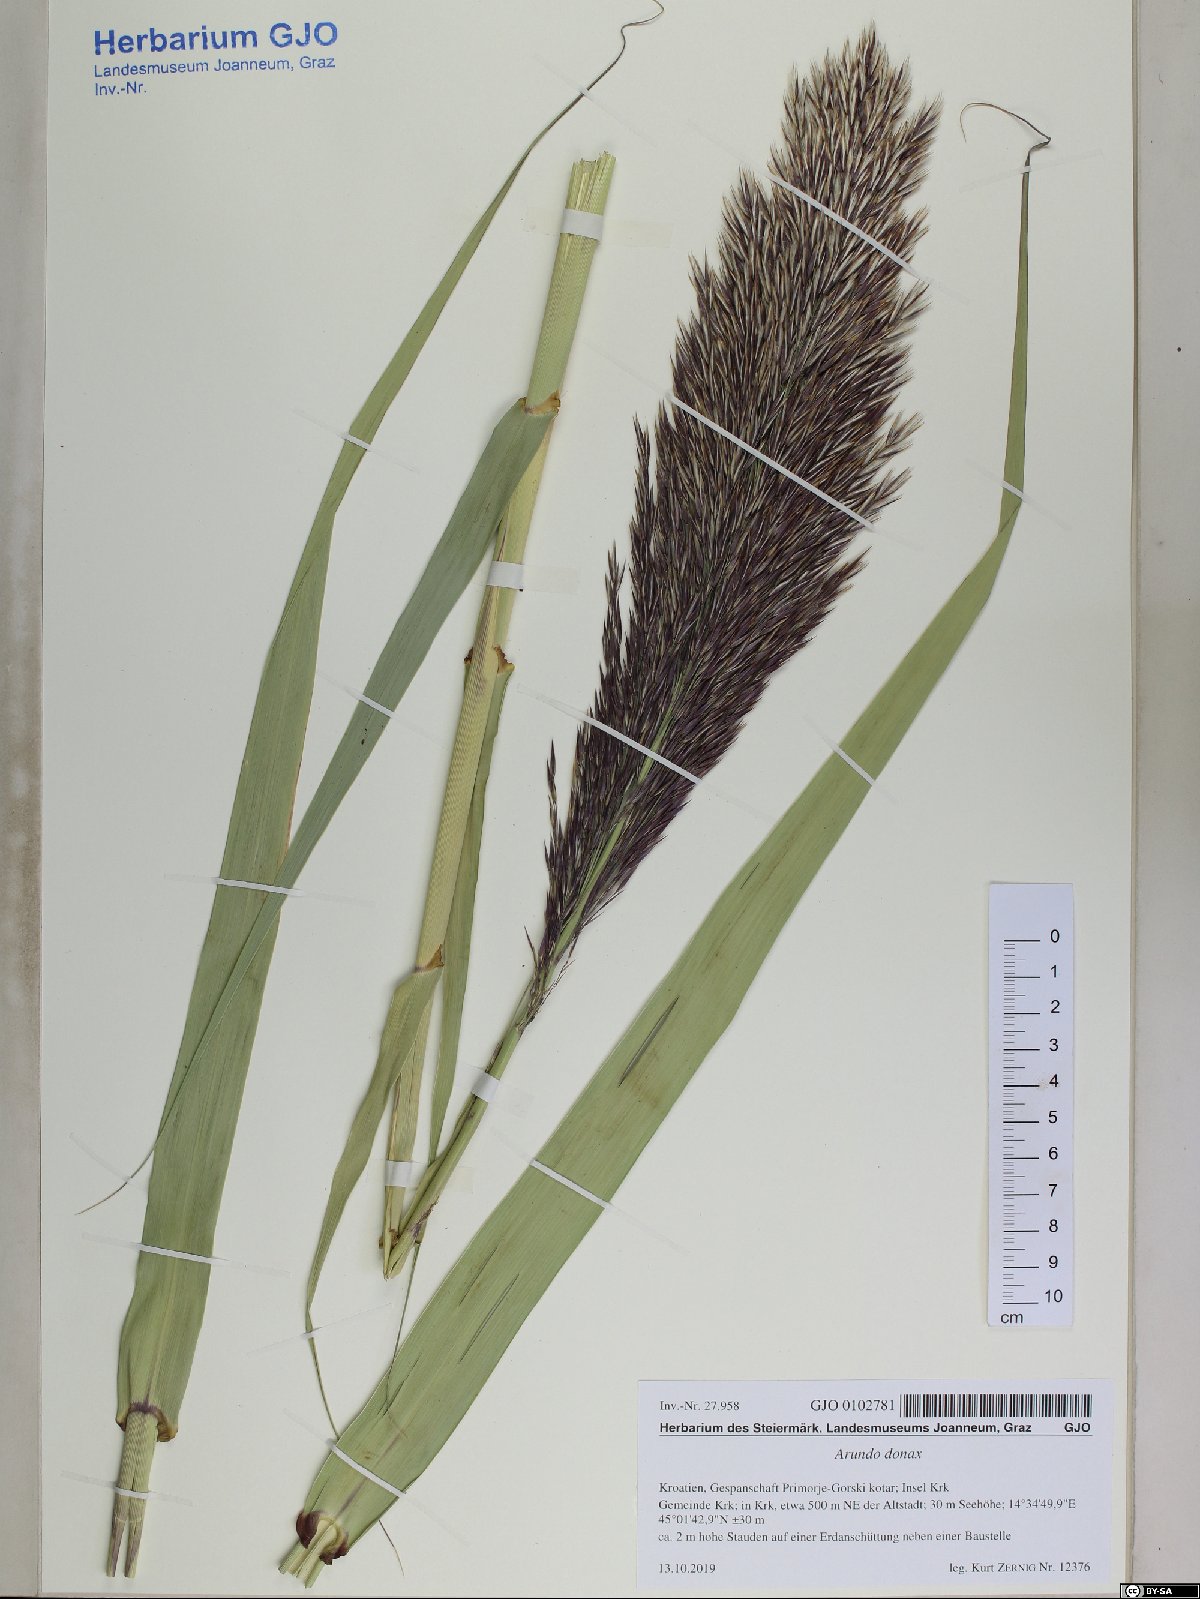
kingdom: Plantae
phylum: Tracheophyta
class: Liliopsida
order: Poales
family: Poaceae
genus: Arundo
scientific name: Arundo donax
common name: Giant reed
